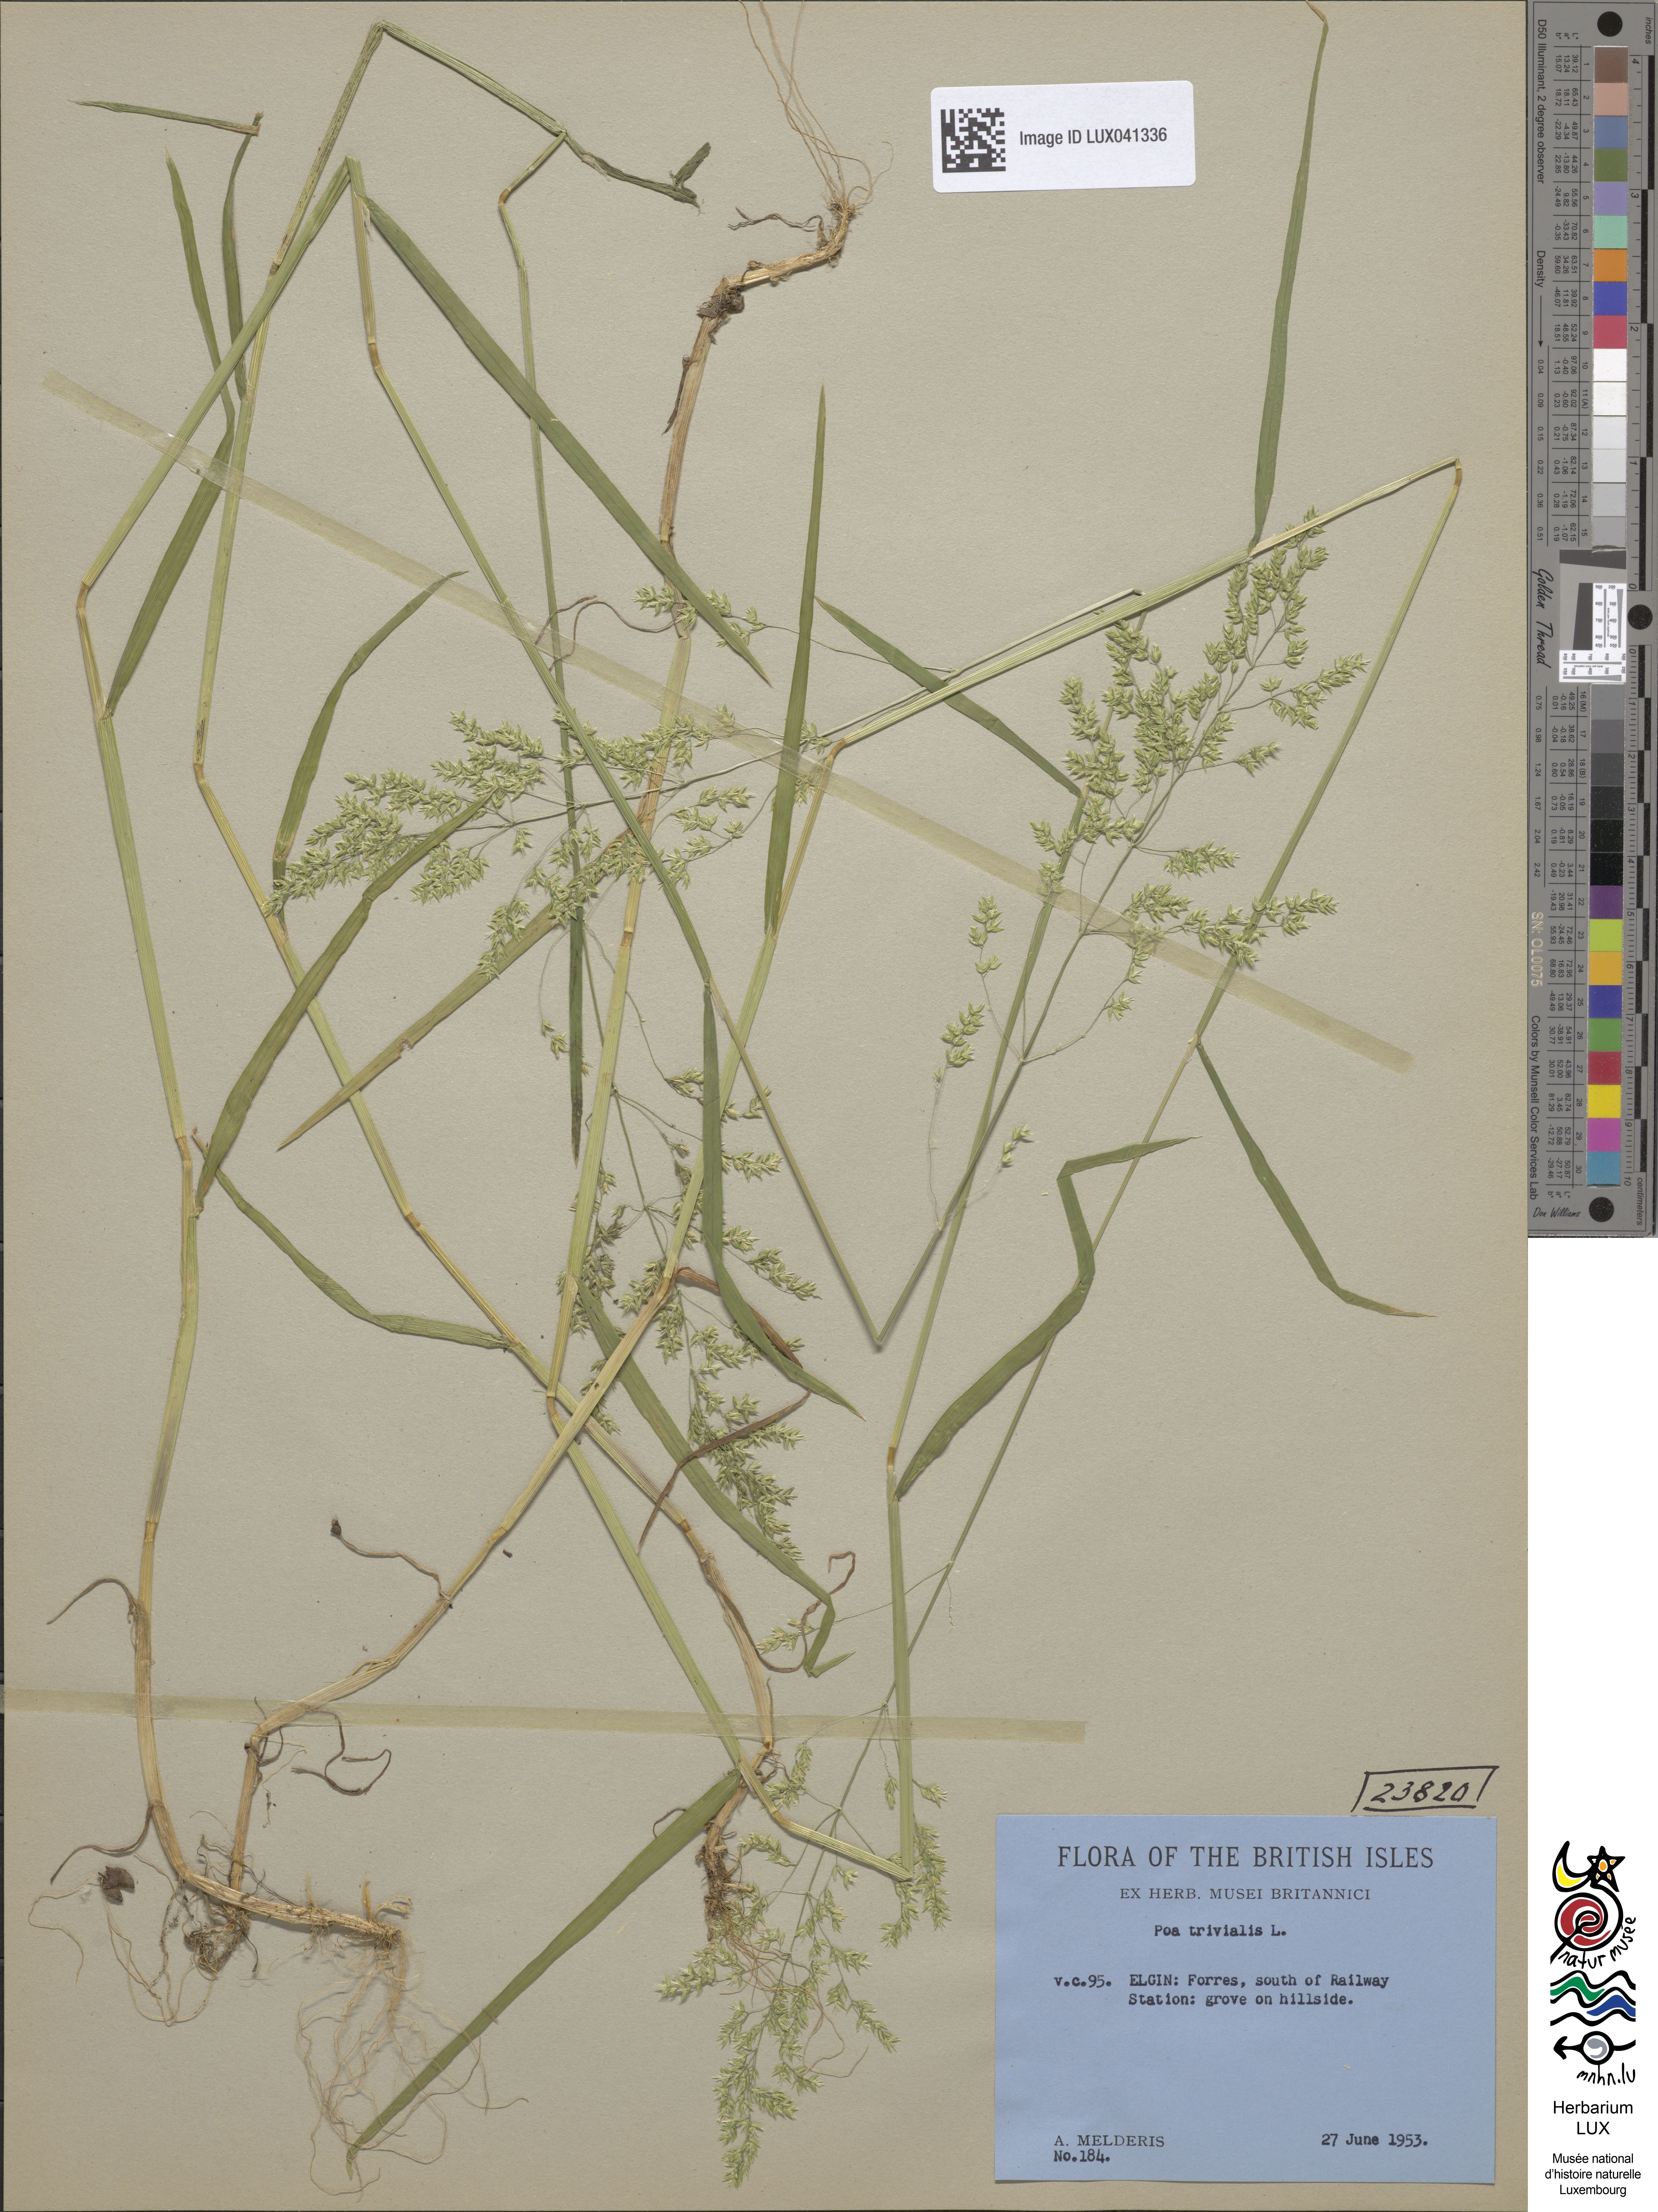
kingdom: Plantae
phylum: Tracheophyta
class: Liliopsida
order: Poales
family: Poaceae
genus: Poa
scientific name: Poa trivialis
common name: Rough bluegrass
